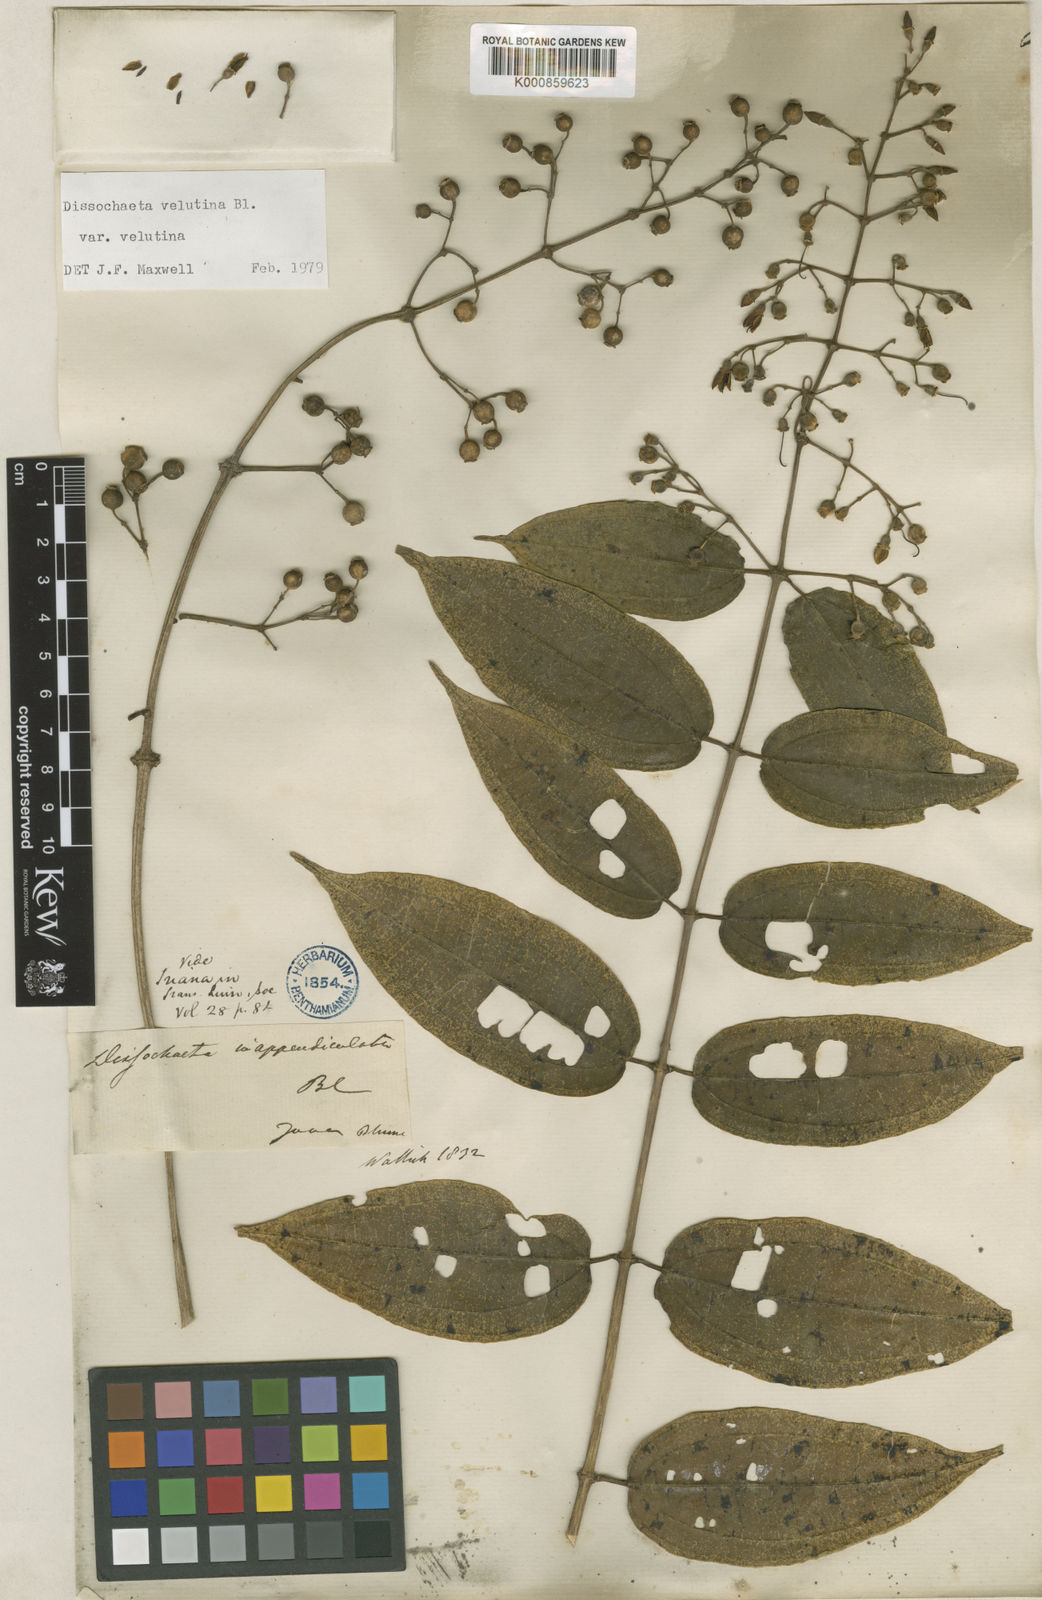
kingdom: Plantae
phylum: Tracheophyta
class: Magnoliopsida
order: Myrtales
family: Melastomataceae
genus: Dissochaeta
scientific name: Dissochaeta inappendiculata
